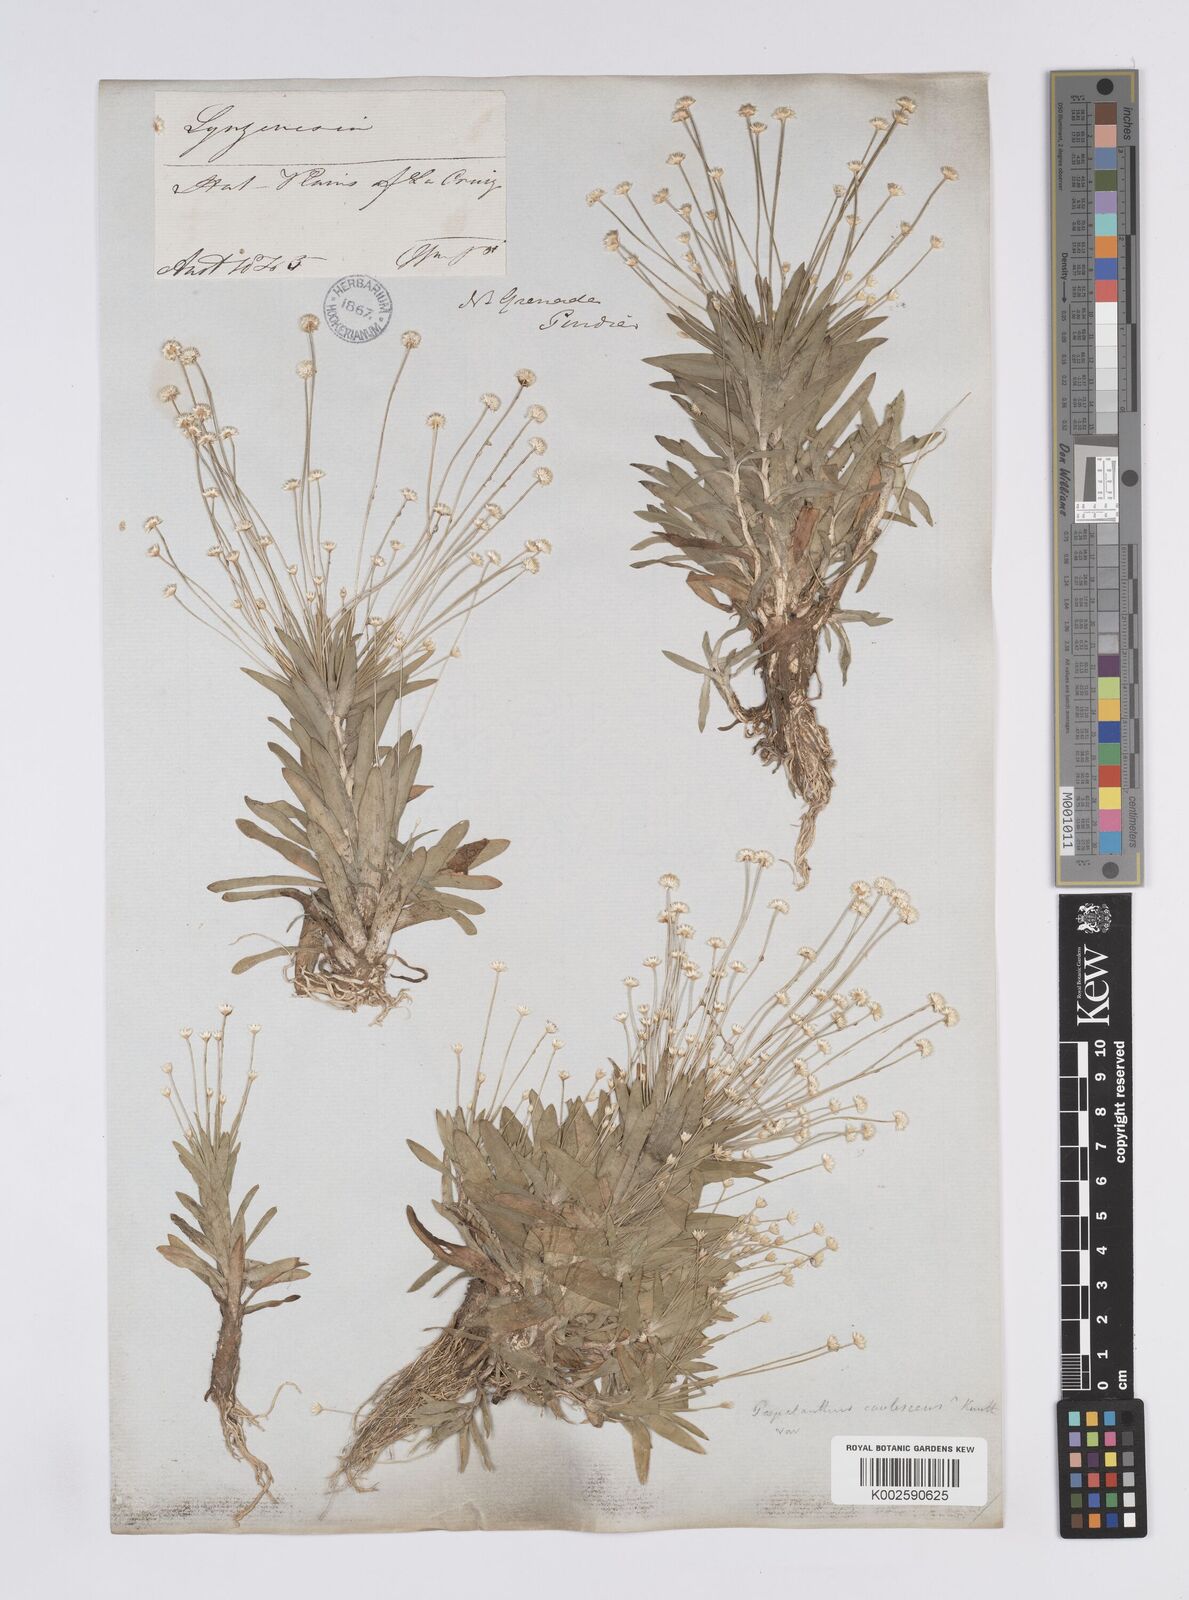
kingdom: Plantae
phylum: Tracheophyta
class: Liliopsida
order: Poales
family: Eriocaulaceae
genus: Syngonanthus
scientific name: Syngonanthus caulescens
